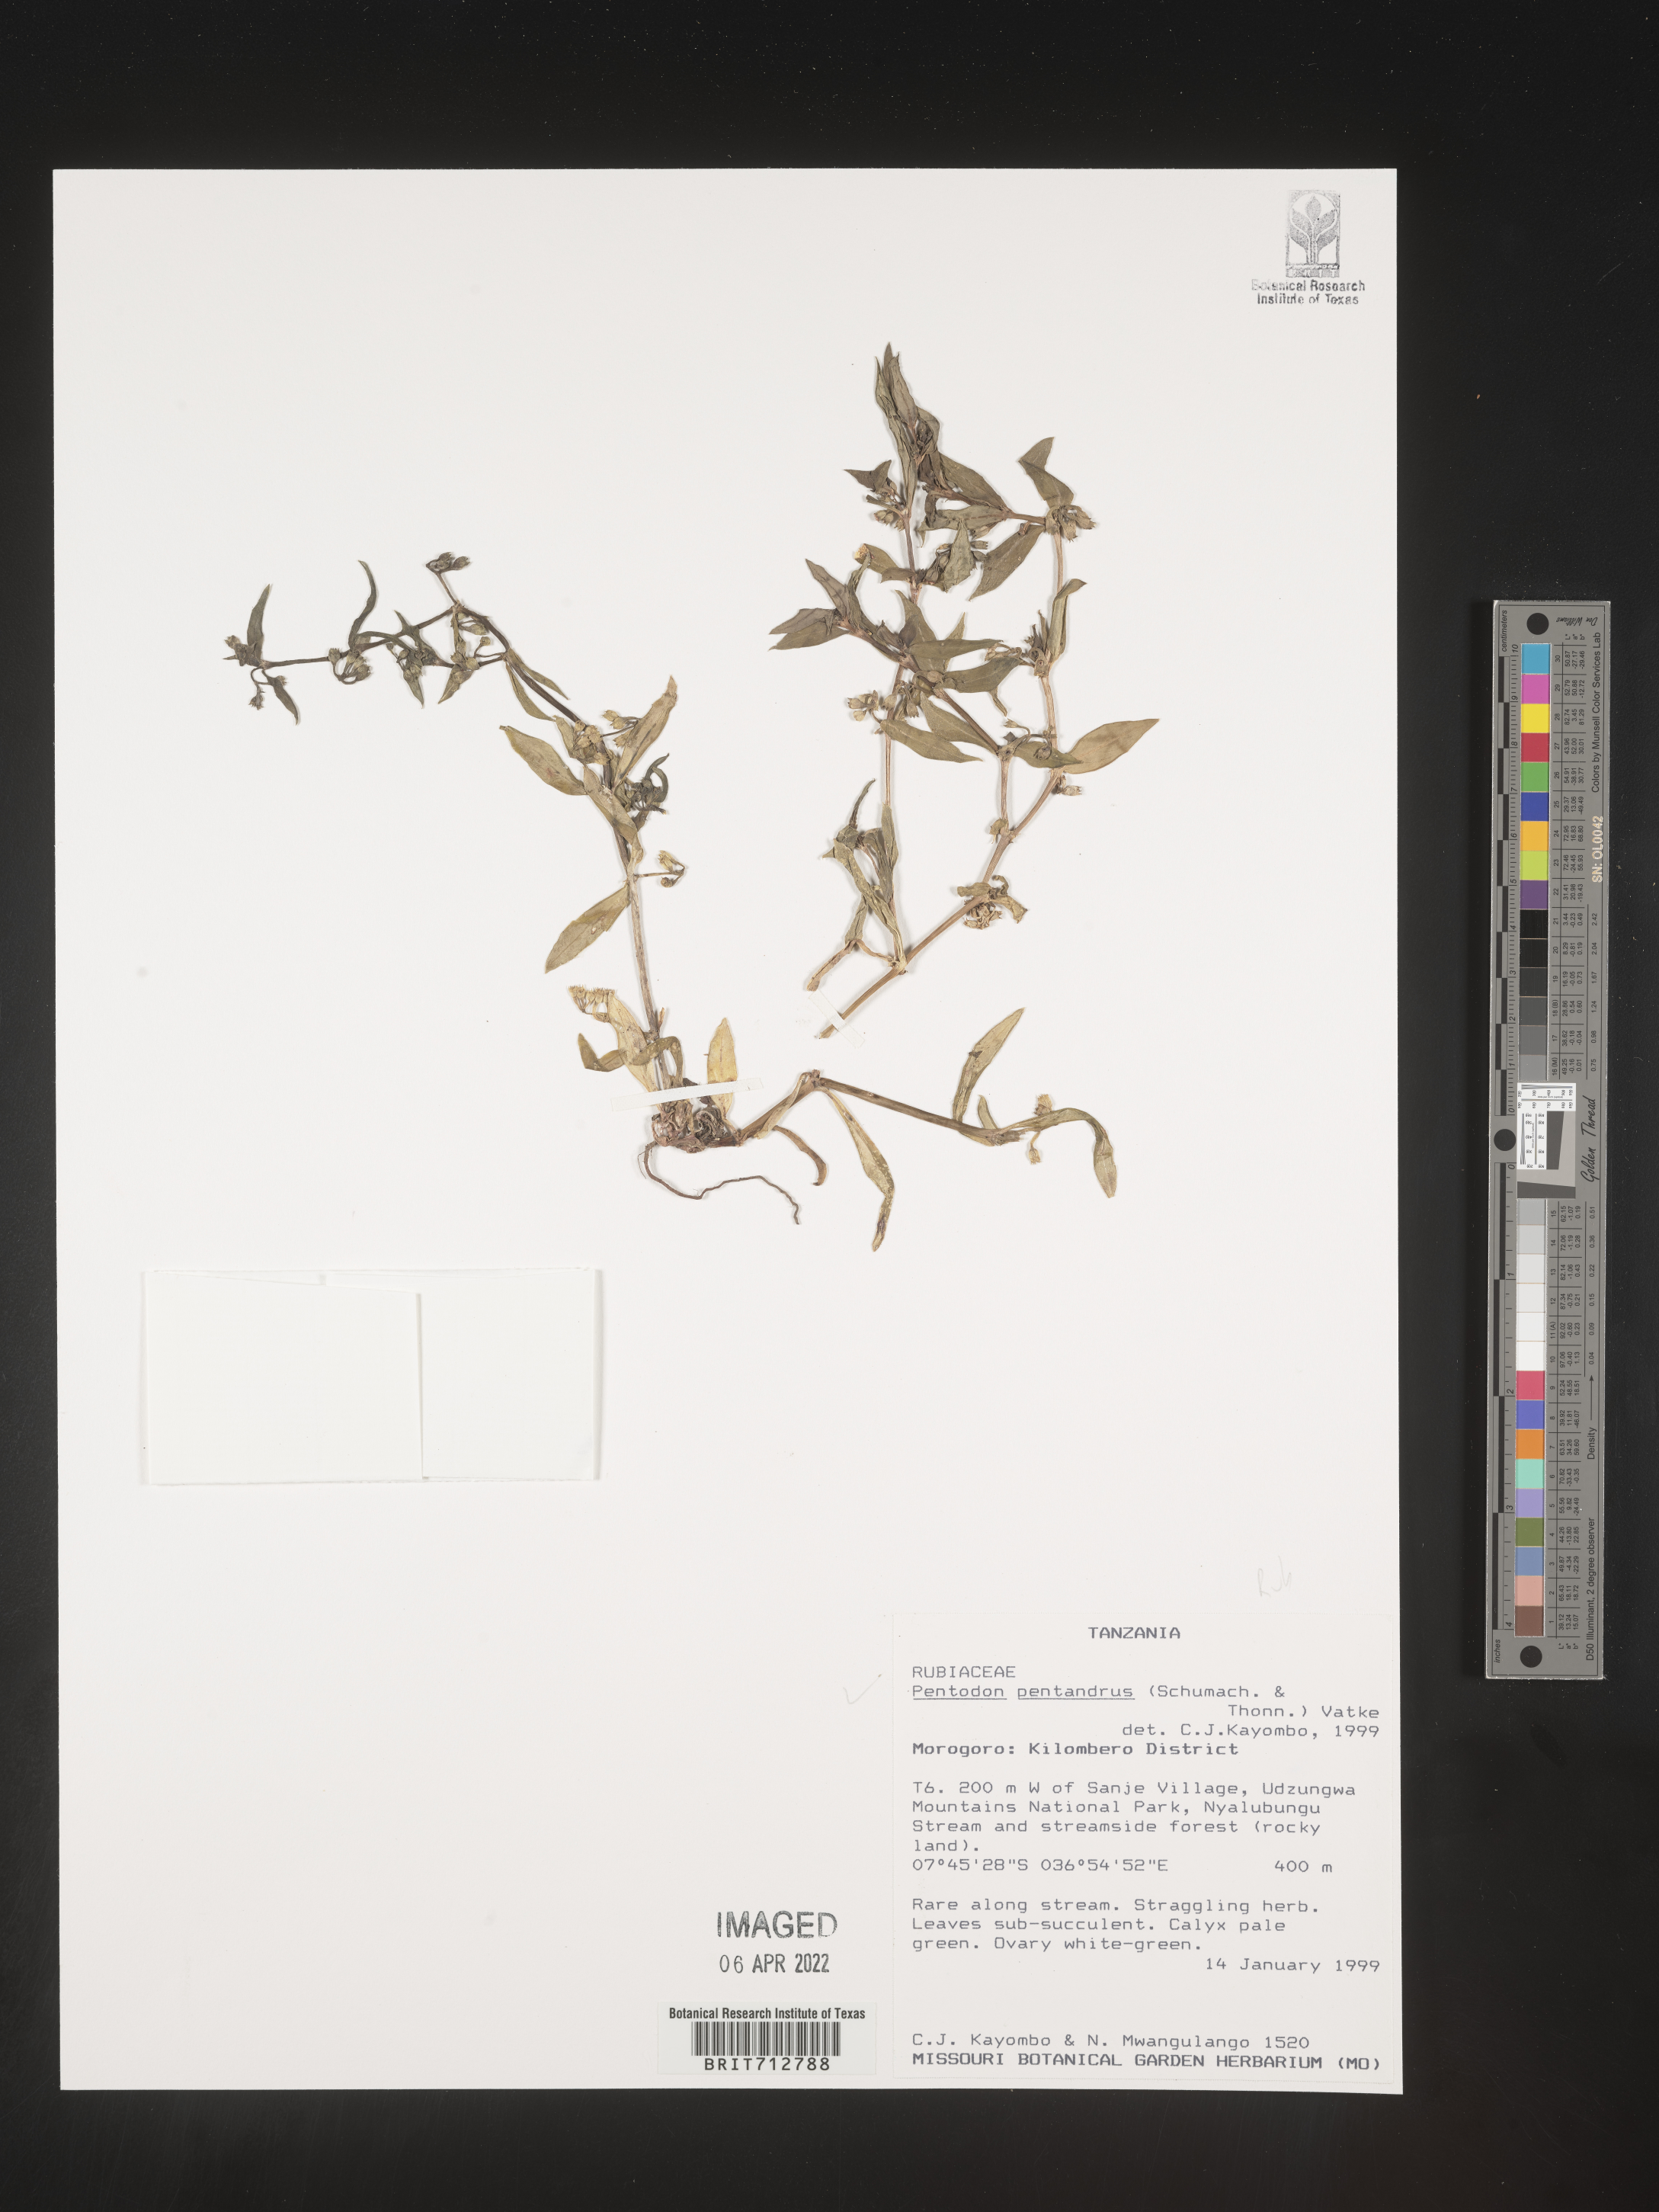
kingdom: Plantae
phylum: Tracheophyta
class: Magnoliopsida
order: Gentianales
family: Rubiaceae
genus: Pentodon
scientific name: Pentodon
